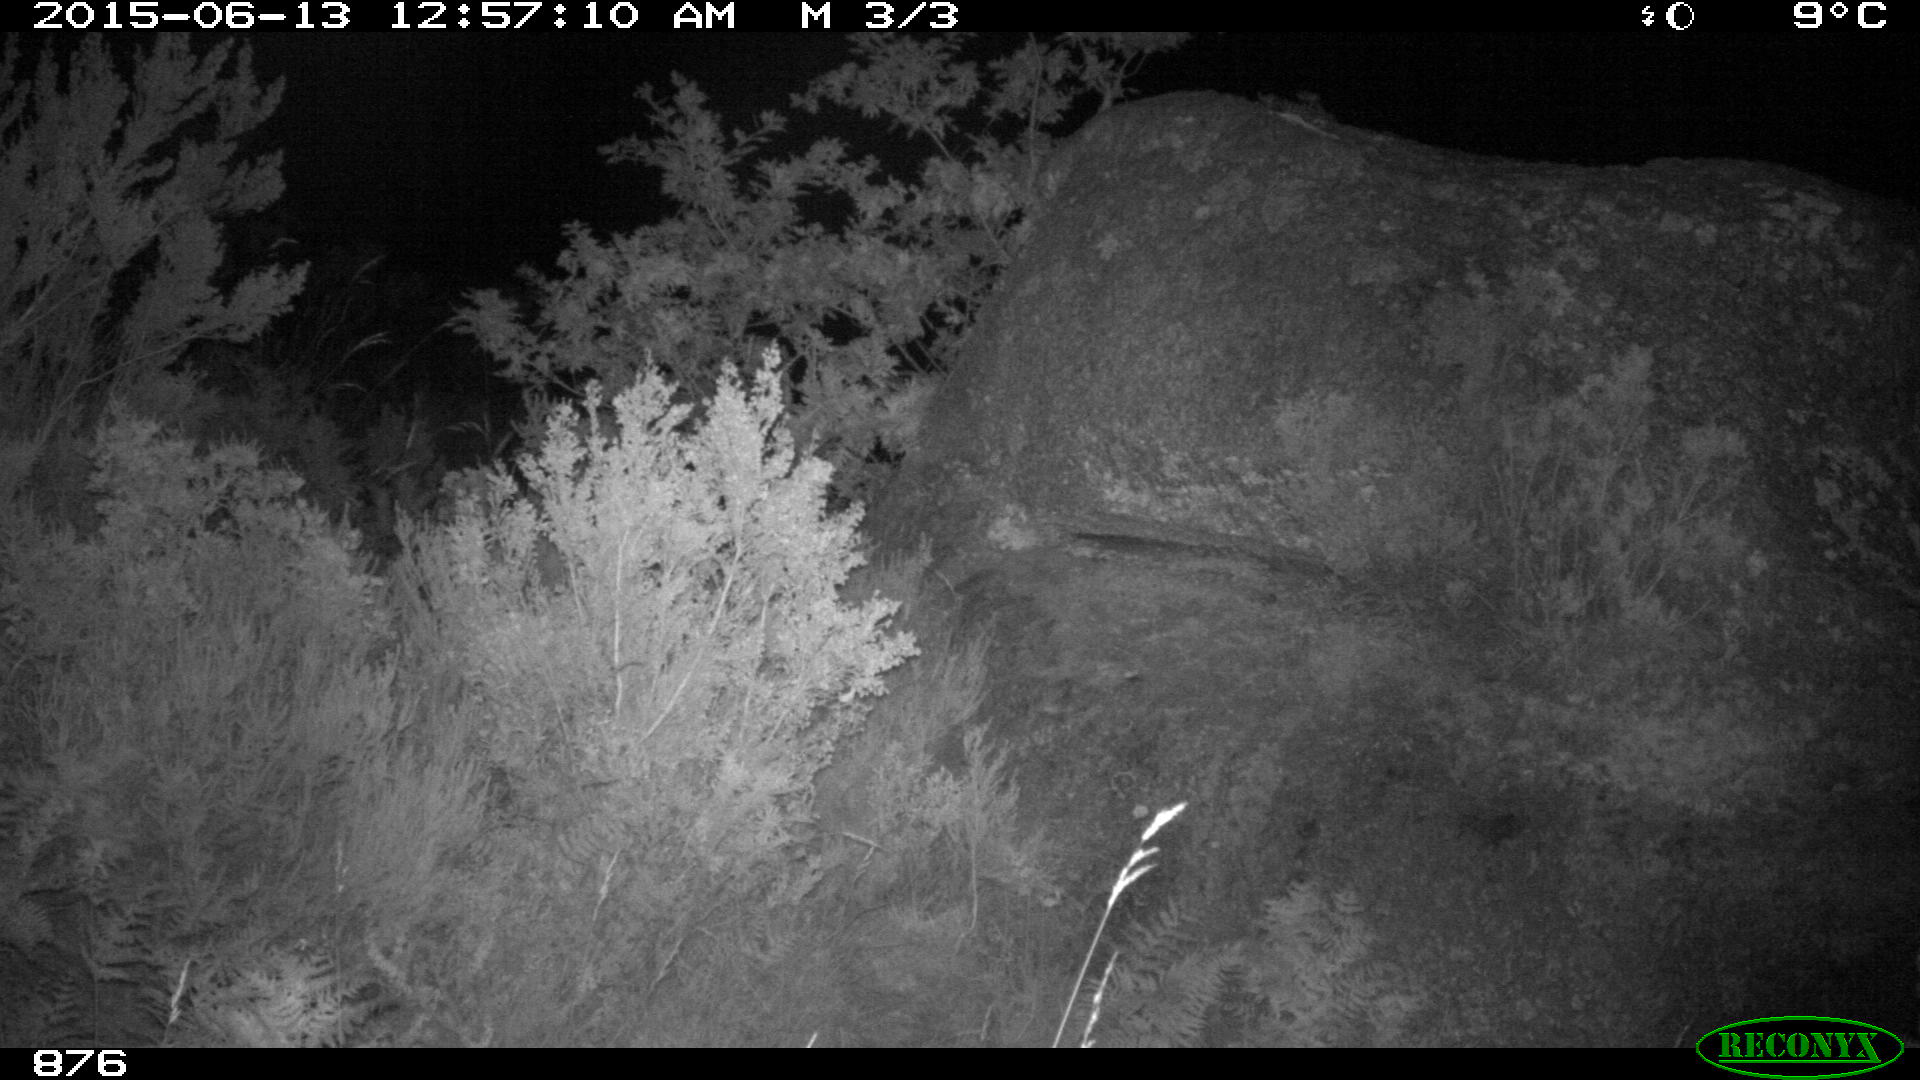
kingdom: Animalia
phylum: Chordata
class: Mammalia
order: Perissodactyla
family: Equidae
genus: Equus
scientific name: Equus caballus
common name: Horse
